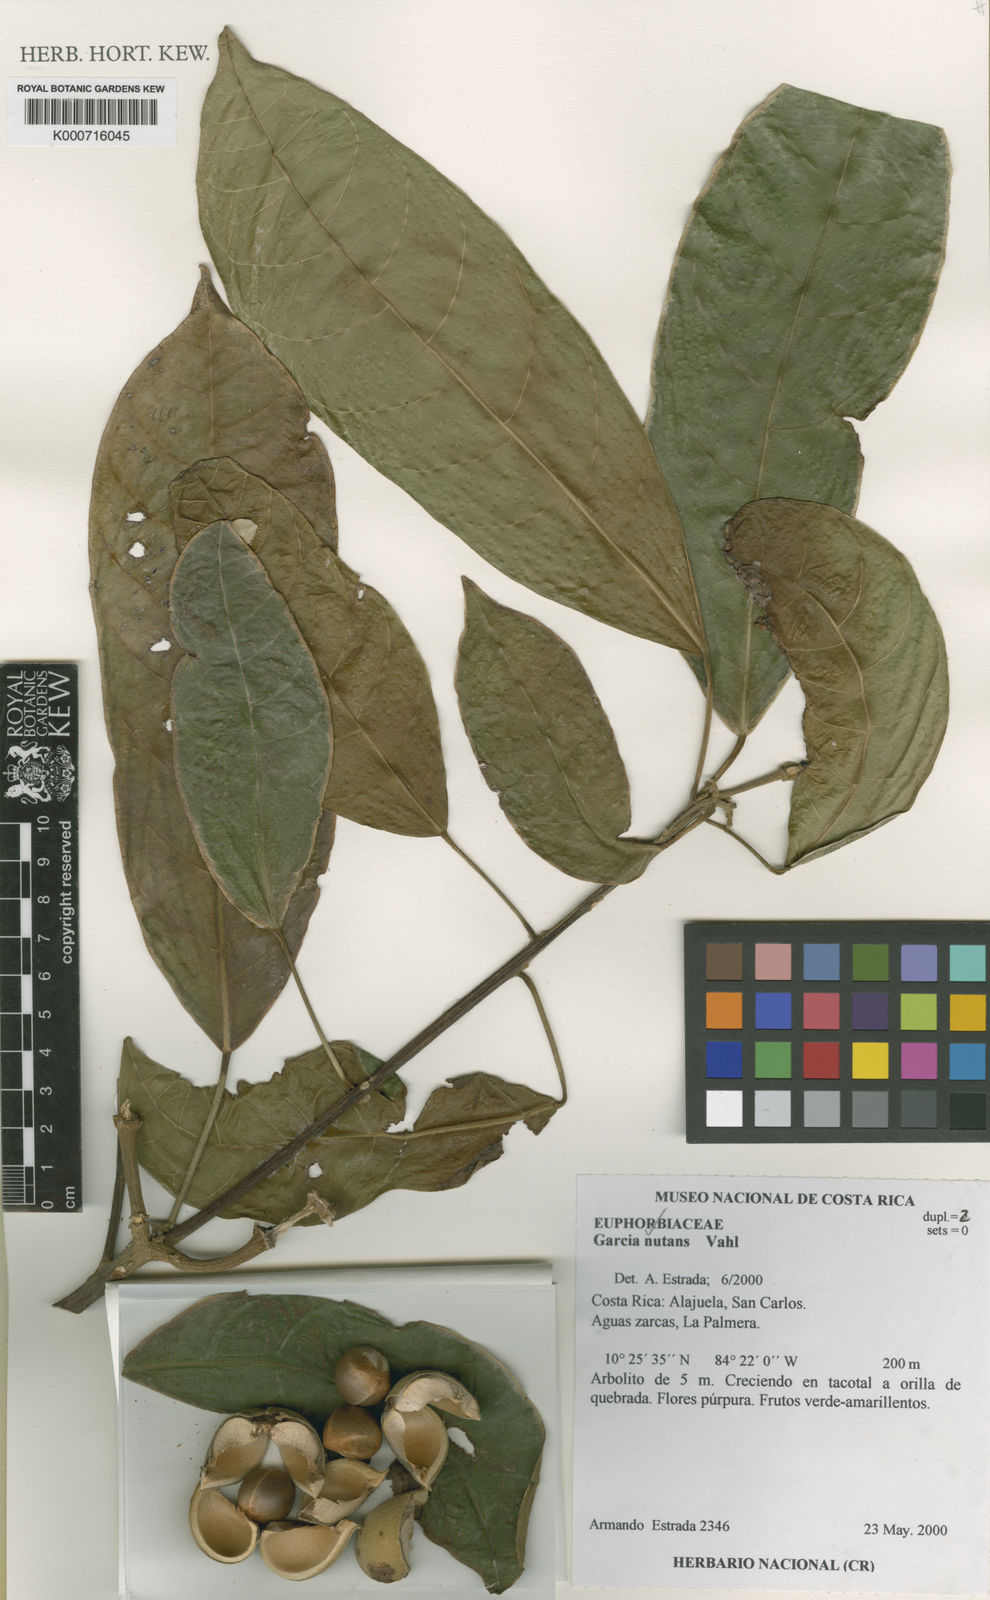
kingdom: Plantae
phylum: Tracheophyta
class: Magnoliopsida
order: Malpighiales
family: Euphorbiaceae
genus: Garcia
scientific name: Garcia nutans
